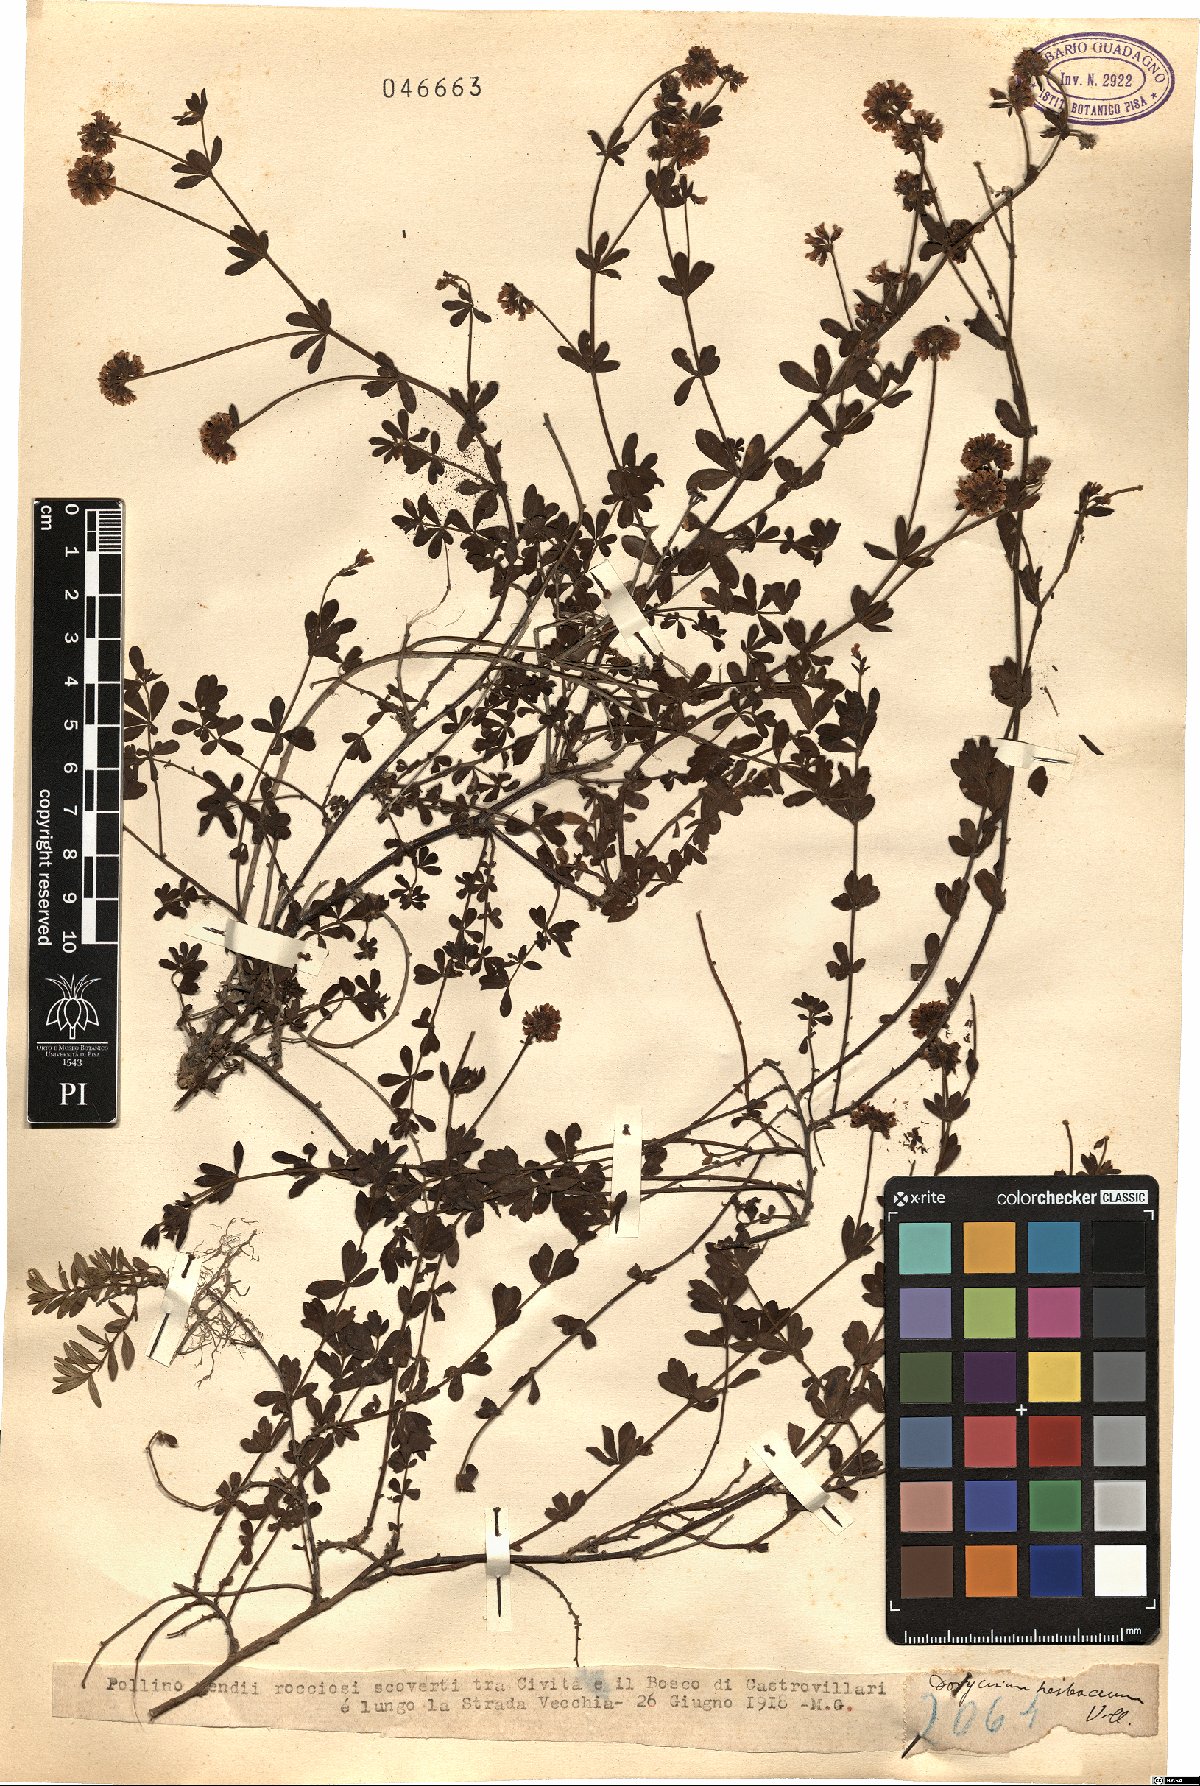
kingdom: Plantae
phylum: Tracheophyta
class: Magnoliopsida
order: Fabales
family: Fabaceae
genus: Lotus
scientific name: Lotus herbaceus
